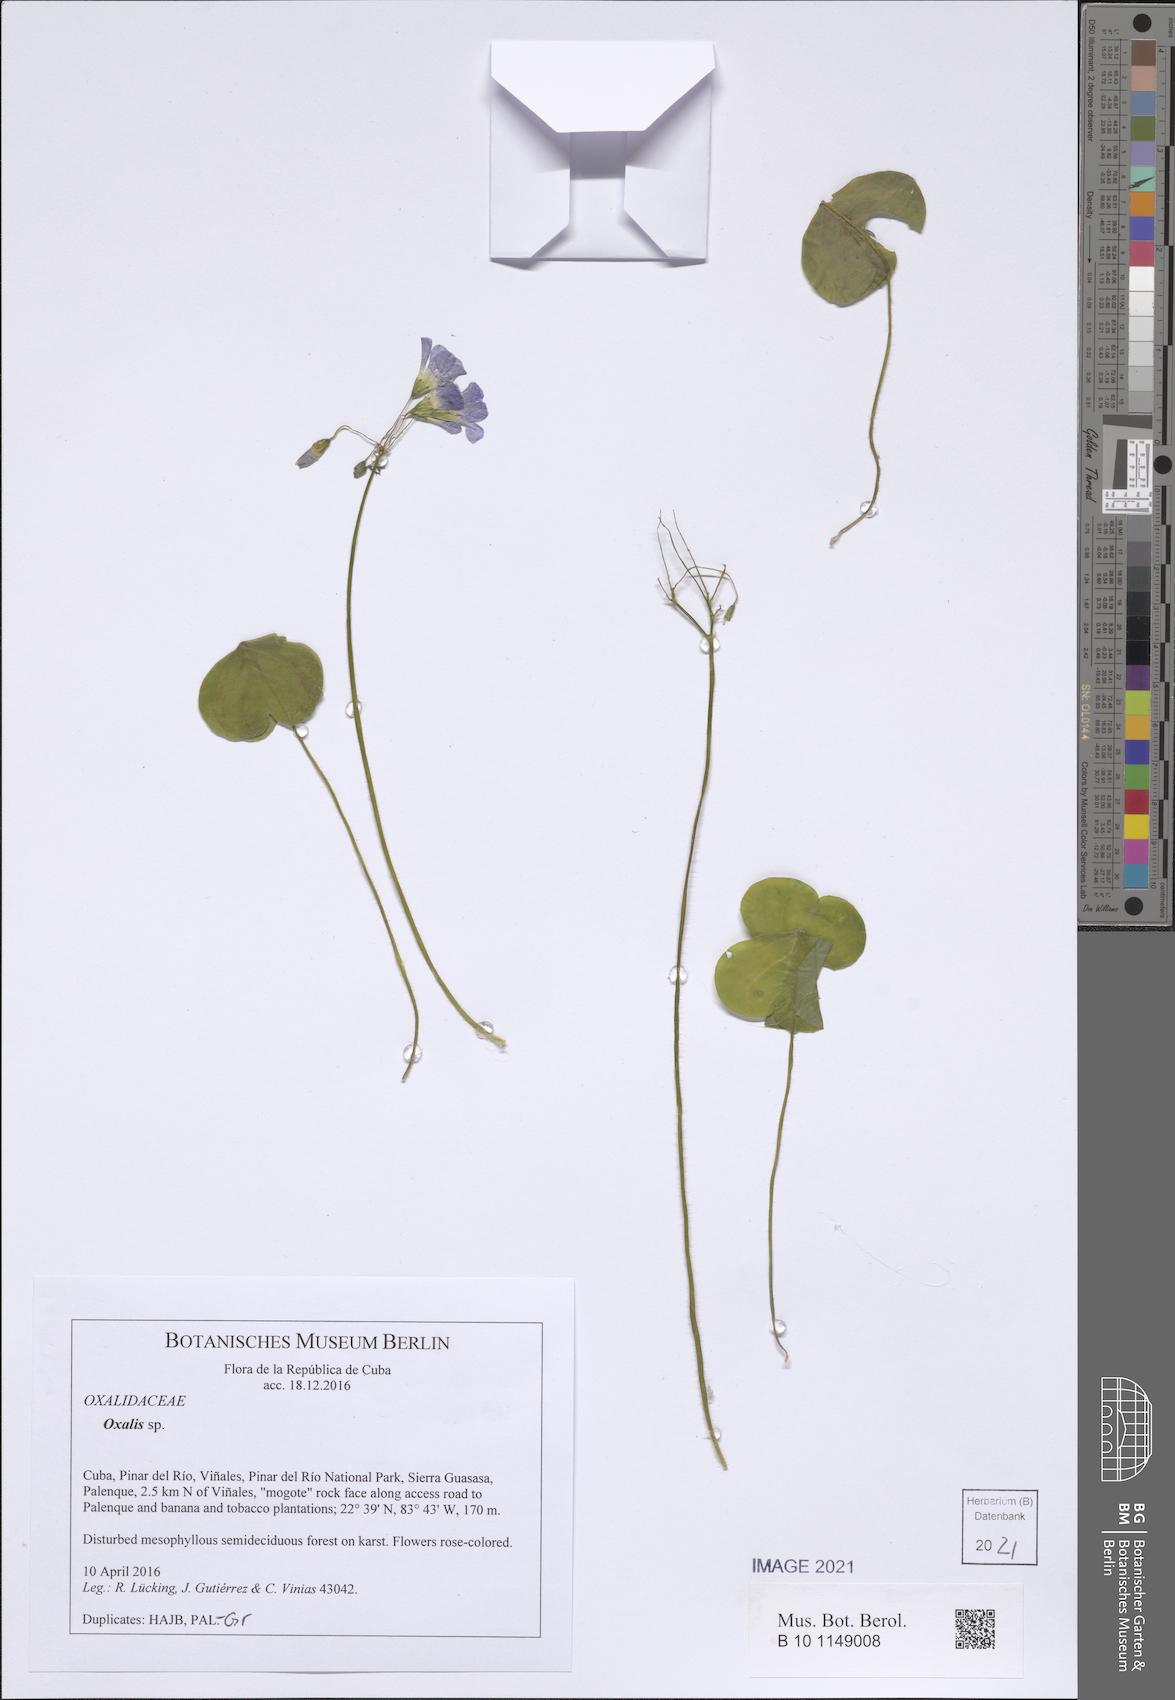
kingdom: Plantae
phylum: Tracheophyta
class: Magnoliopsida
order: Oxalidales
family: Oxalidaceae
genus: Oxalis
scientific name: Oxalis debilis
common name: Large-flowered pink-sorrel
